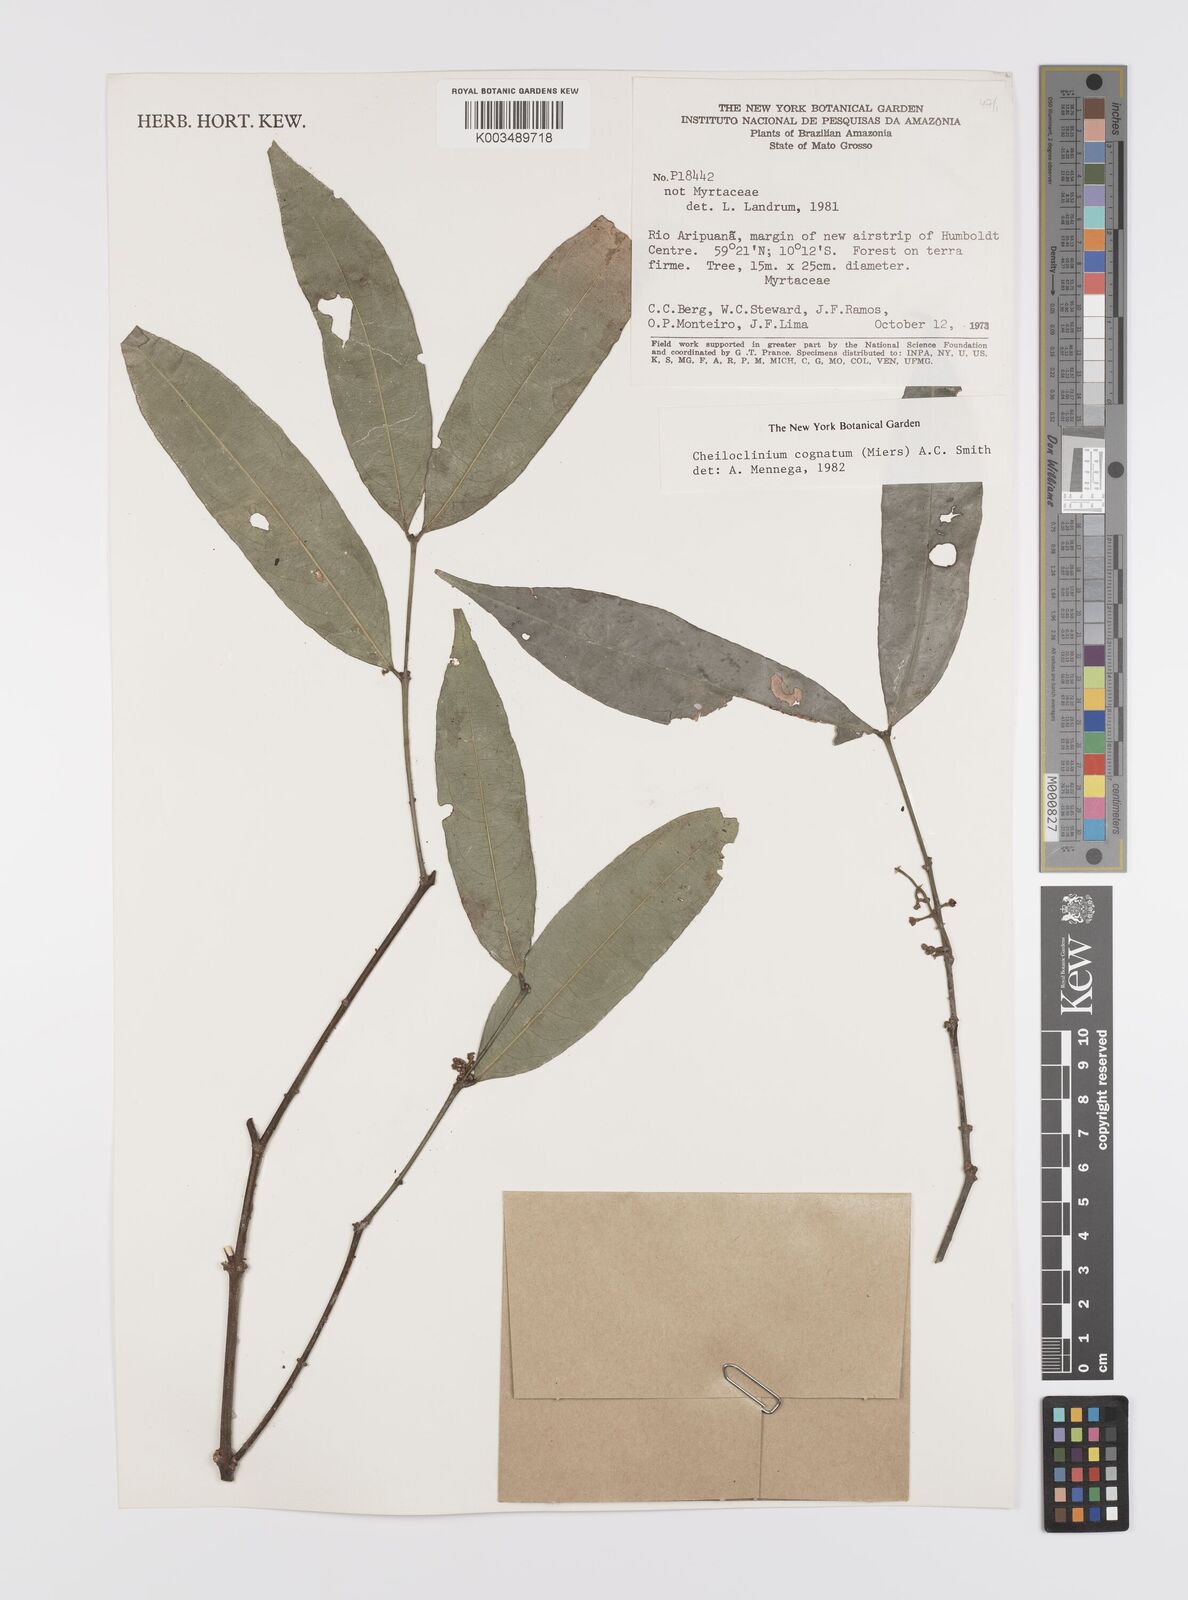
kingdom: Plantae
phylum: Tracheophyta
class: Magnoliopsida
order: Celastrales
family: Celastraceae
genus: Cheiloclinium
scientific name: Cheiloclinium cognatum
